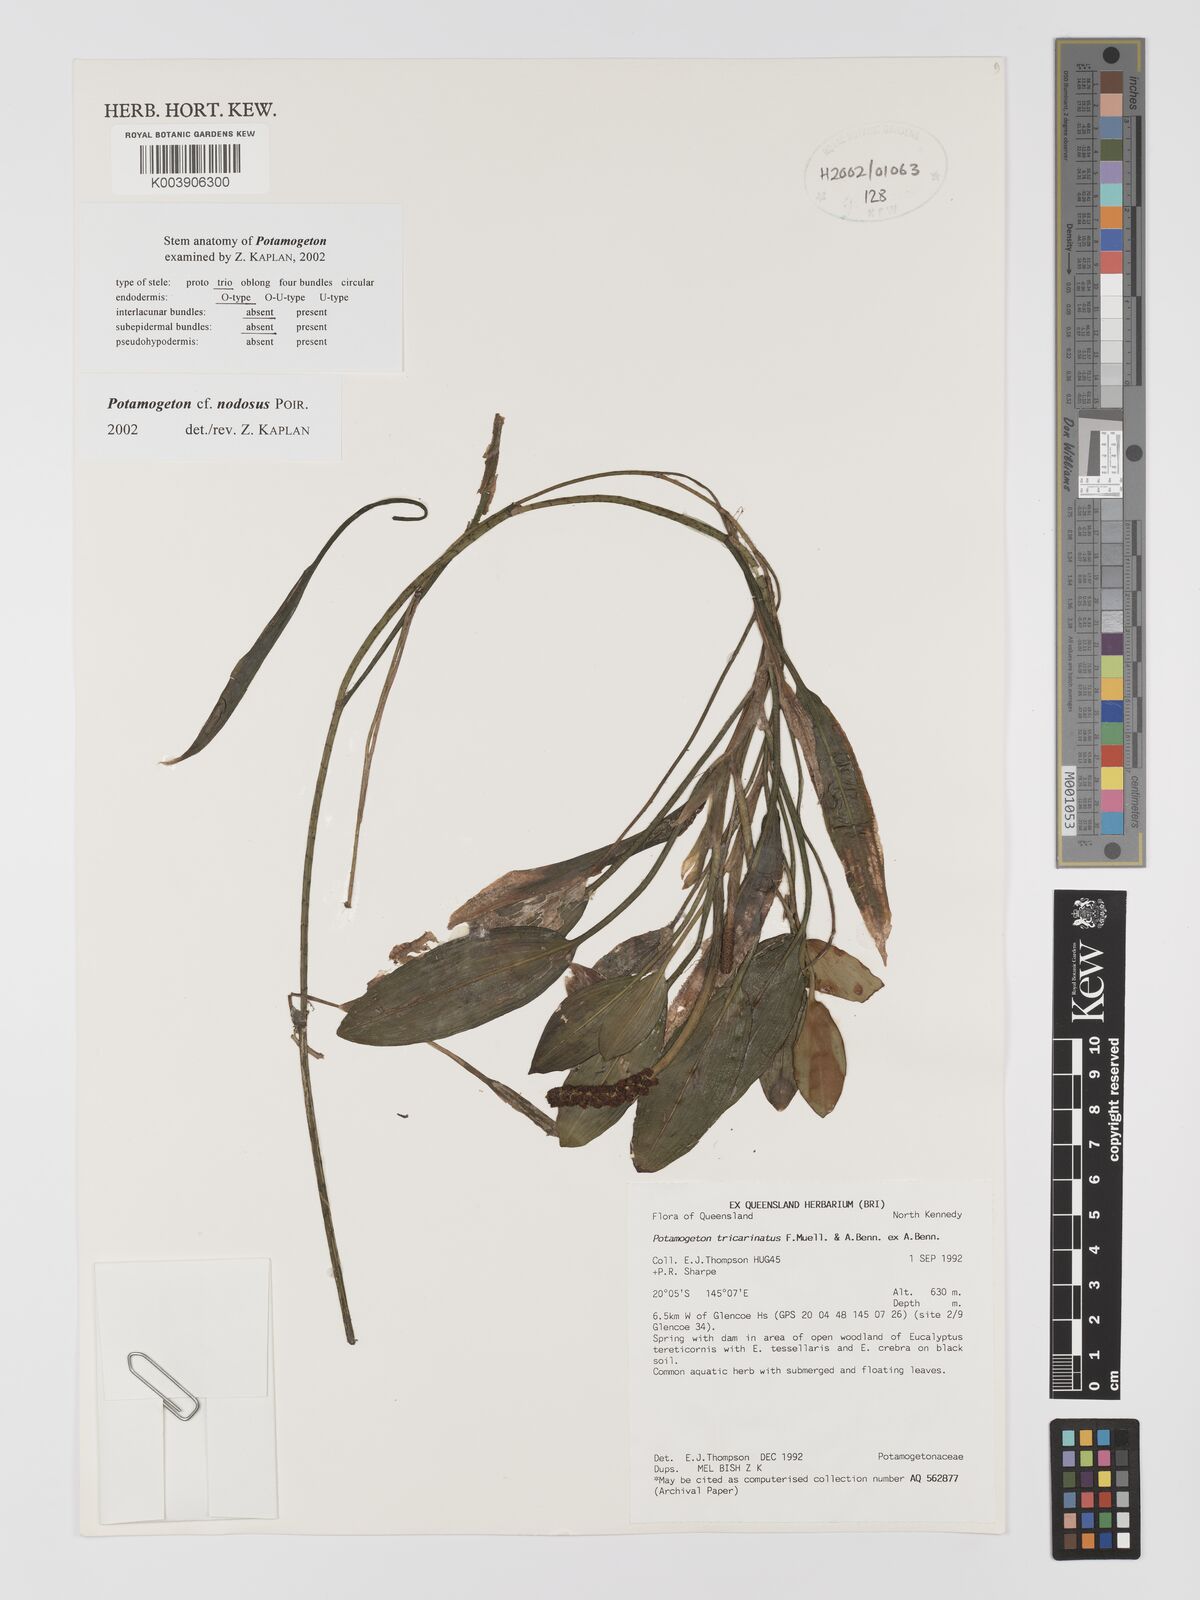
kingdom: Plantae
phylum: Tracheophyta
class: Liliopsida
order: Alismatales
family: Potamogetonaceae
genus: Potamogeton
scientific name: Potamogeton nodosus
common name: Loddon pondweed
